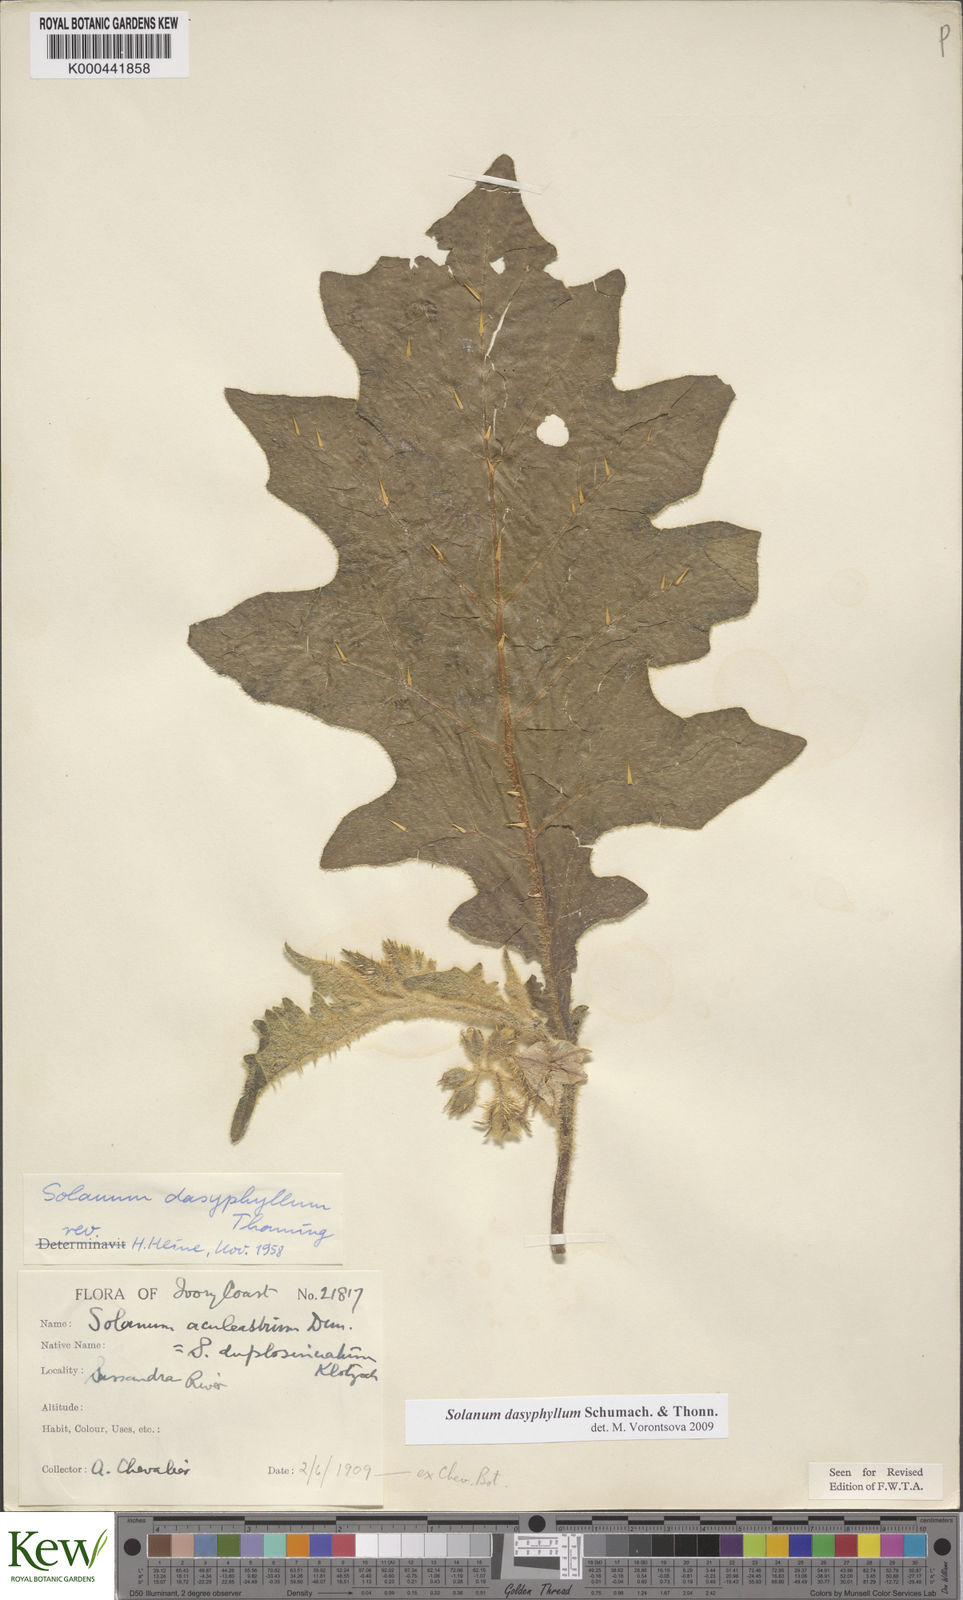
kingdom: Plantae
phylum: Tracheophyta
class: Magnoliopsida
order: Solanales
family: Solanaceae
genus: Solanum
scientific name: Solanum dasyphyllum
